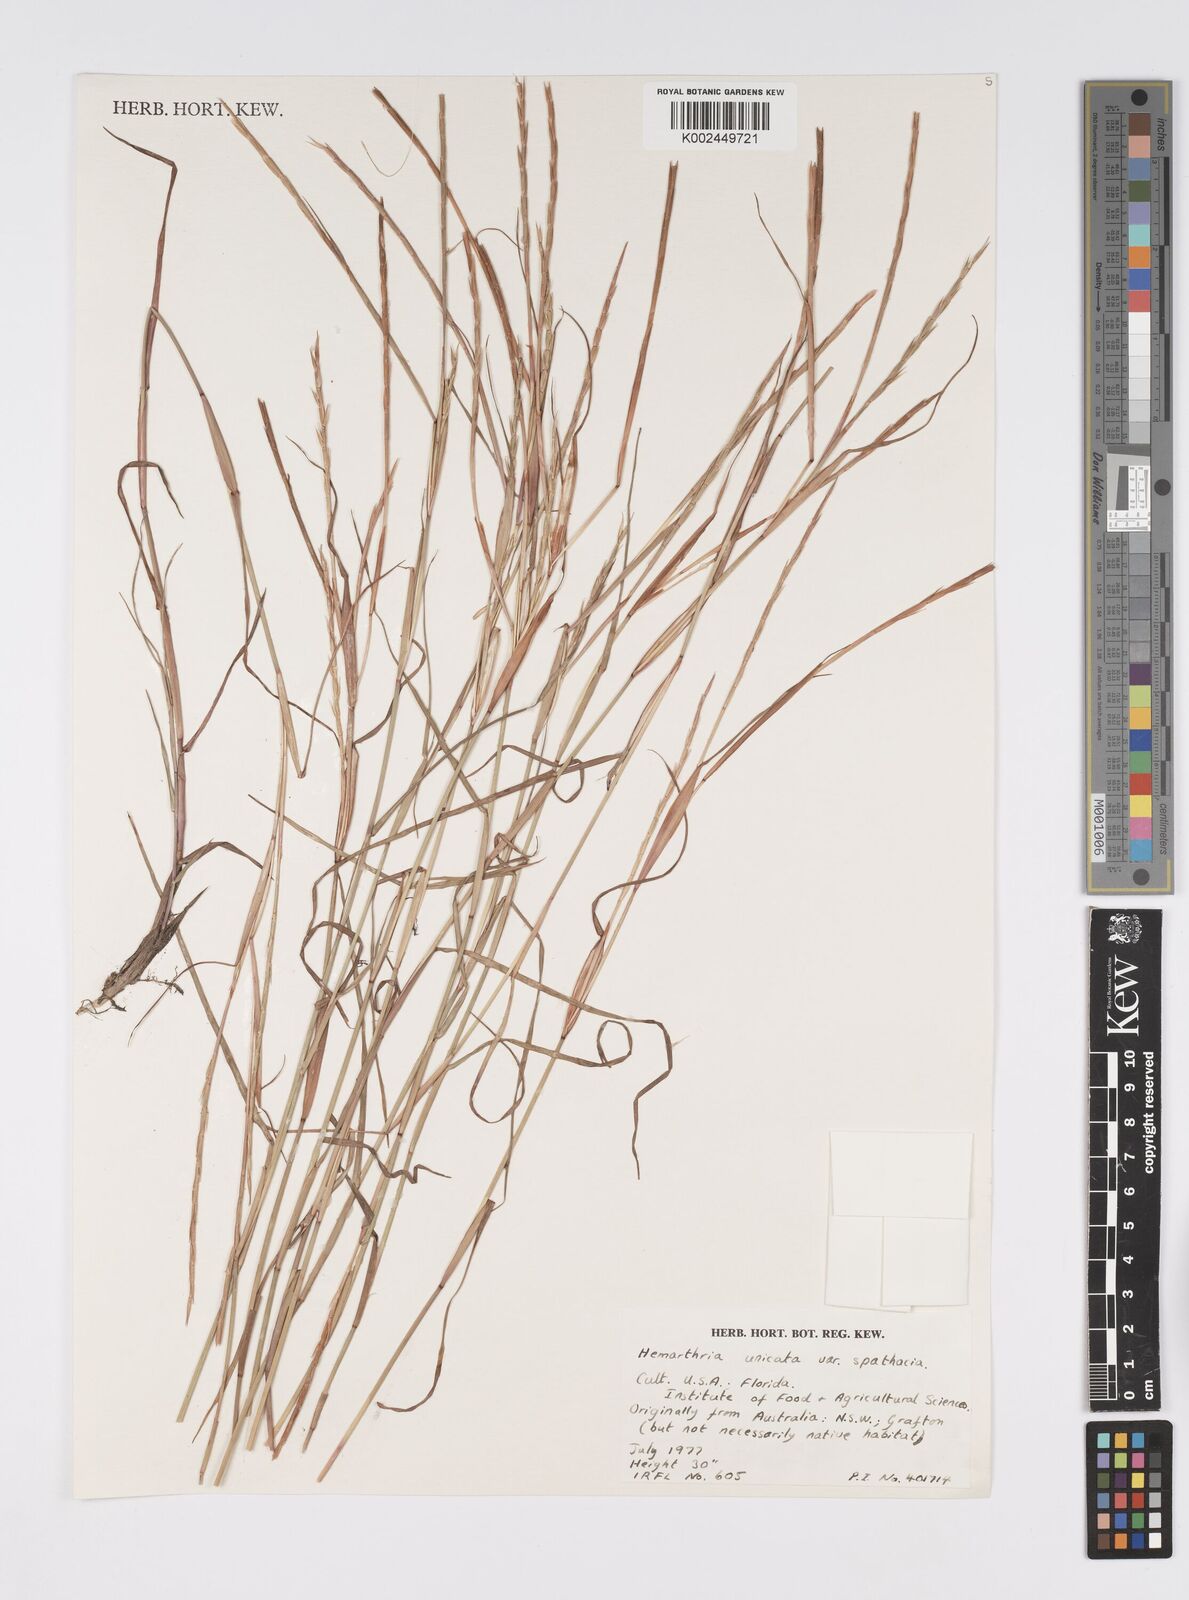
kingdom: Plantae
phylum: Tracheophyta
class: Liliopsida
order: Poales
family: Poaceae
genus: Hemarthria
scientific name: Hemarthria uncinata
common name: Matgrass
